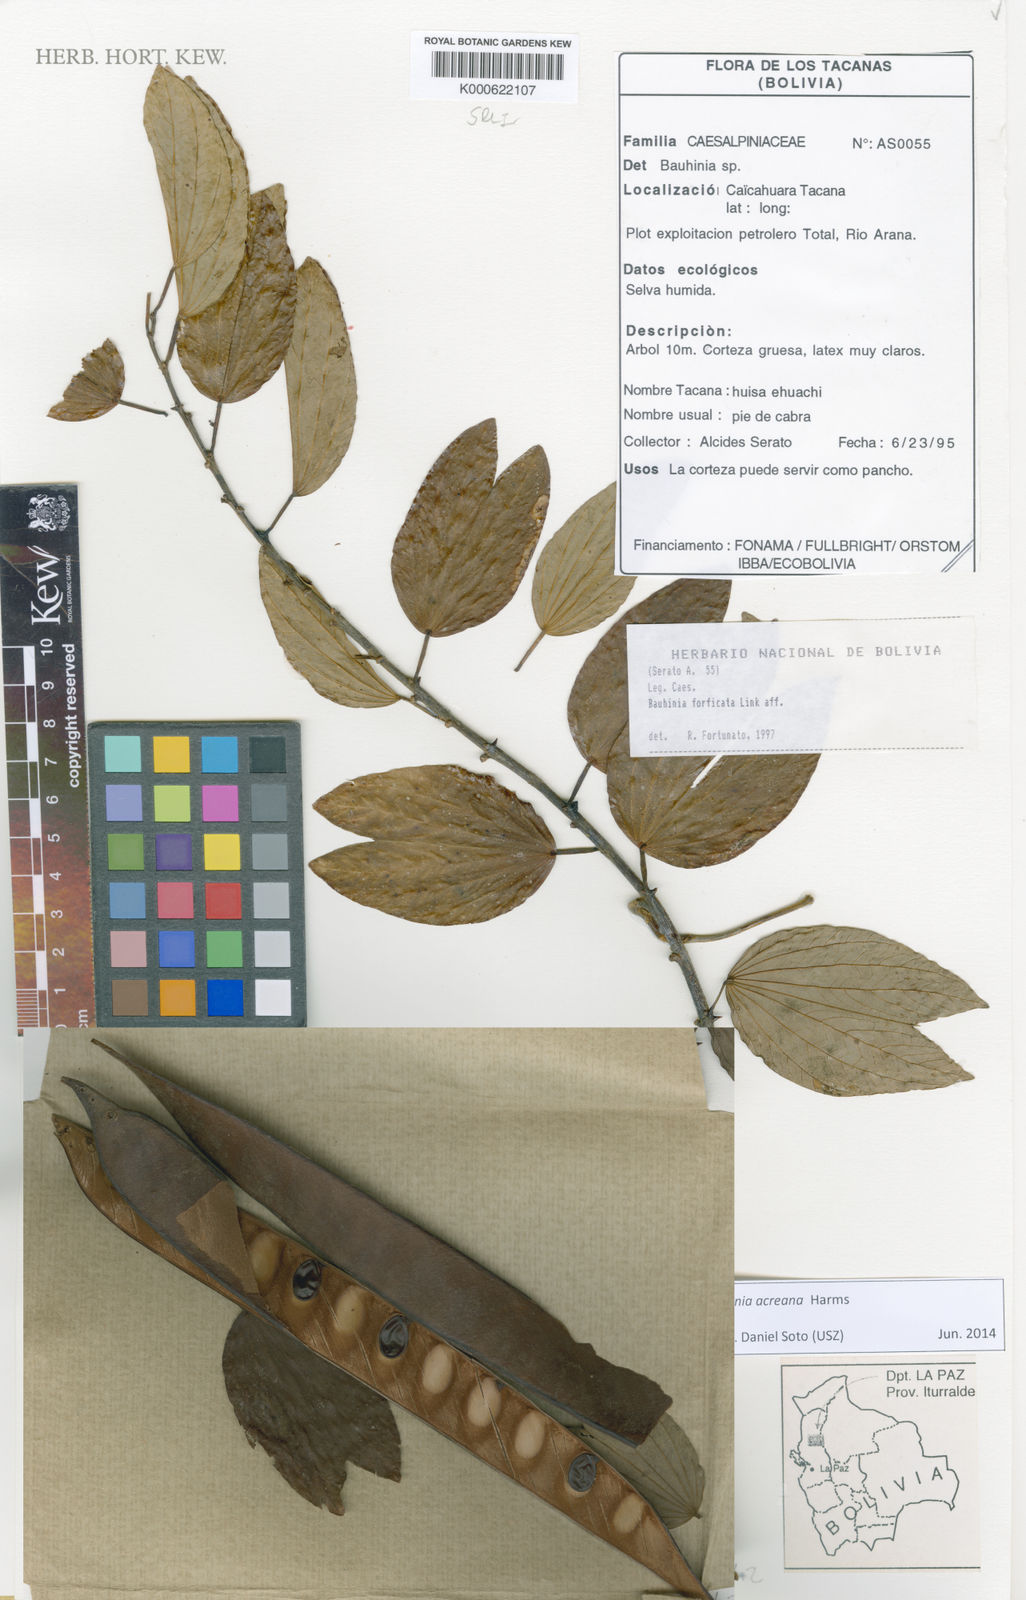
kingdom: Plantae
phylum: Tracheophyta
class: Magnoliopsida
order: Fabales
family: Fabaceae
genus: Bauhinia
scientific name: Bauhinia forficata
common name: Orchid tree
